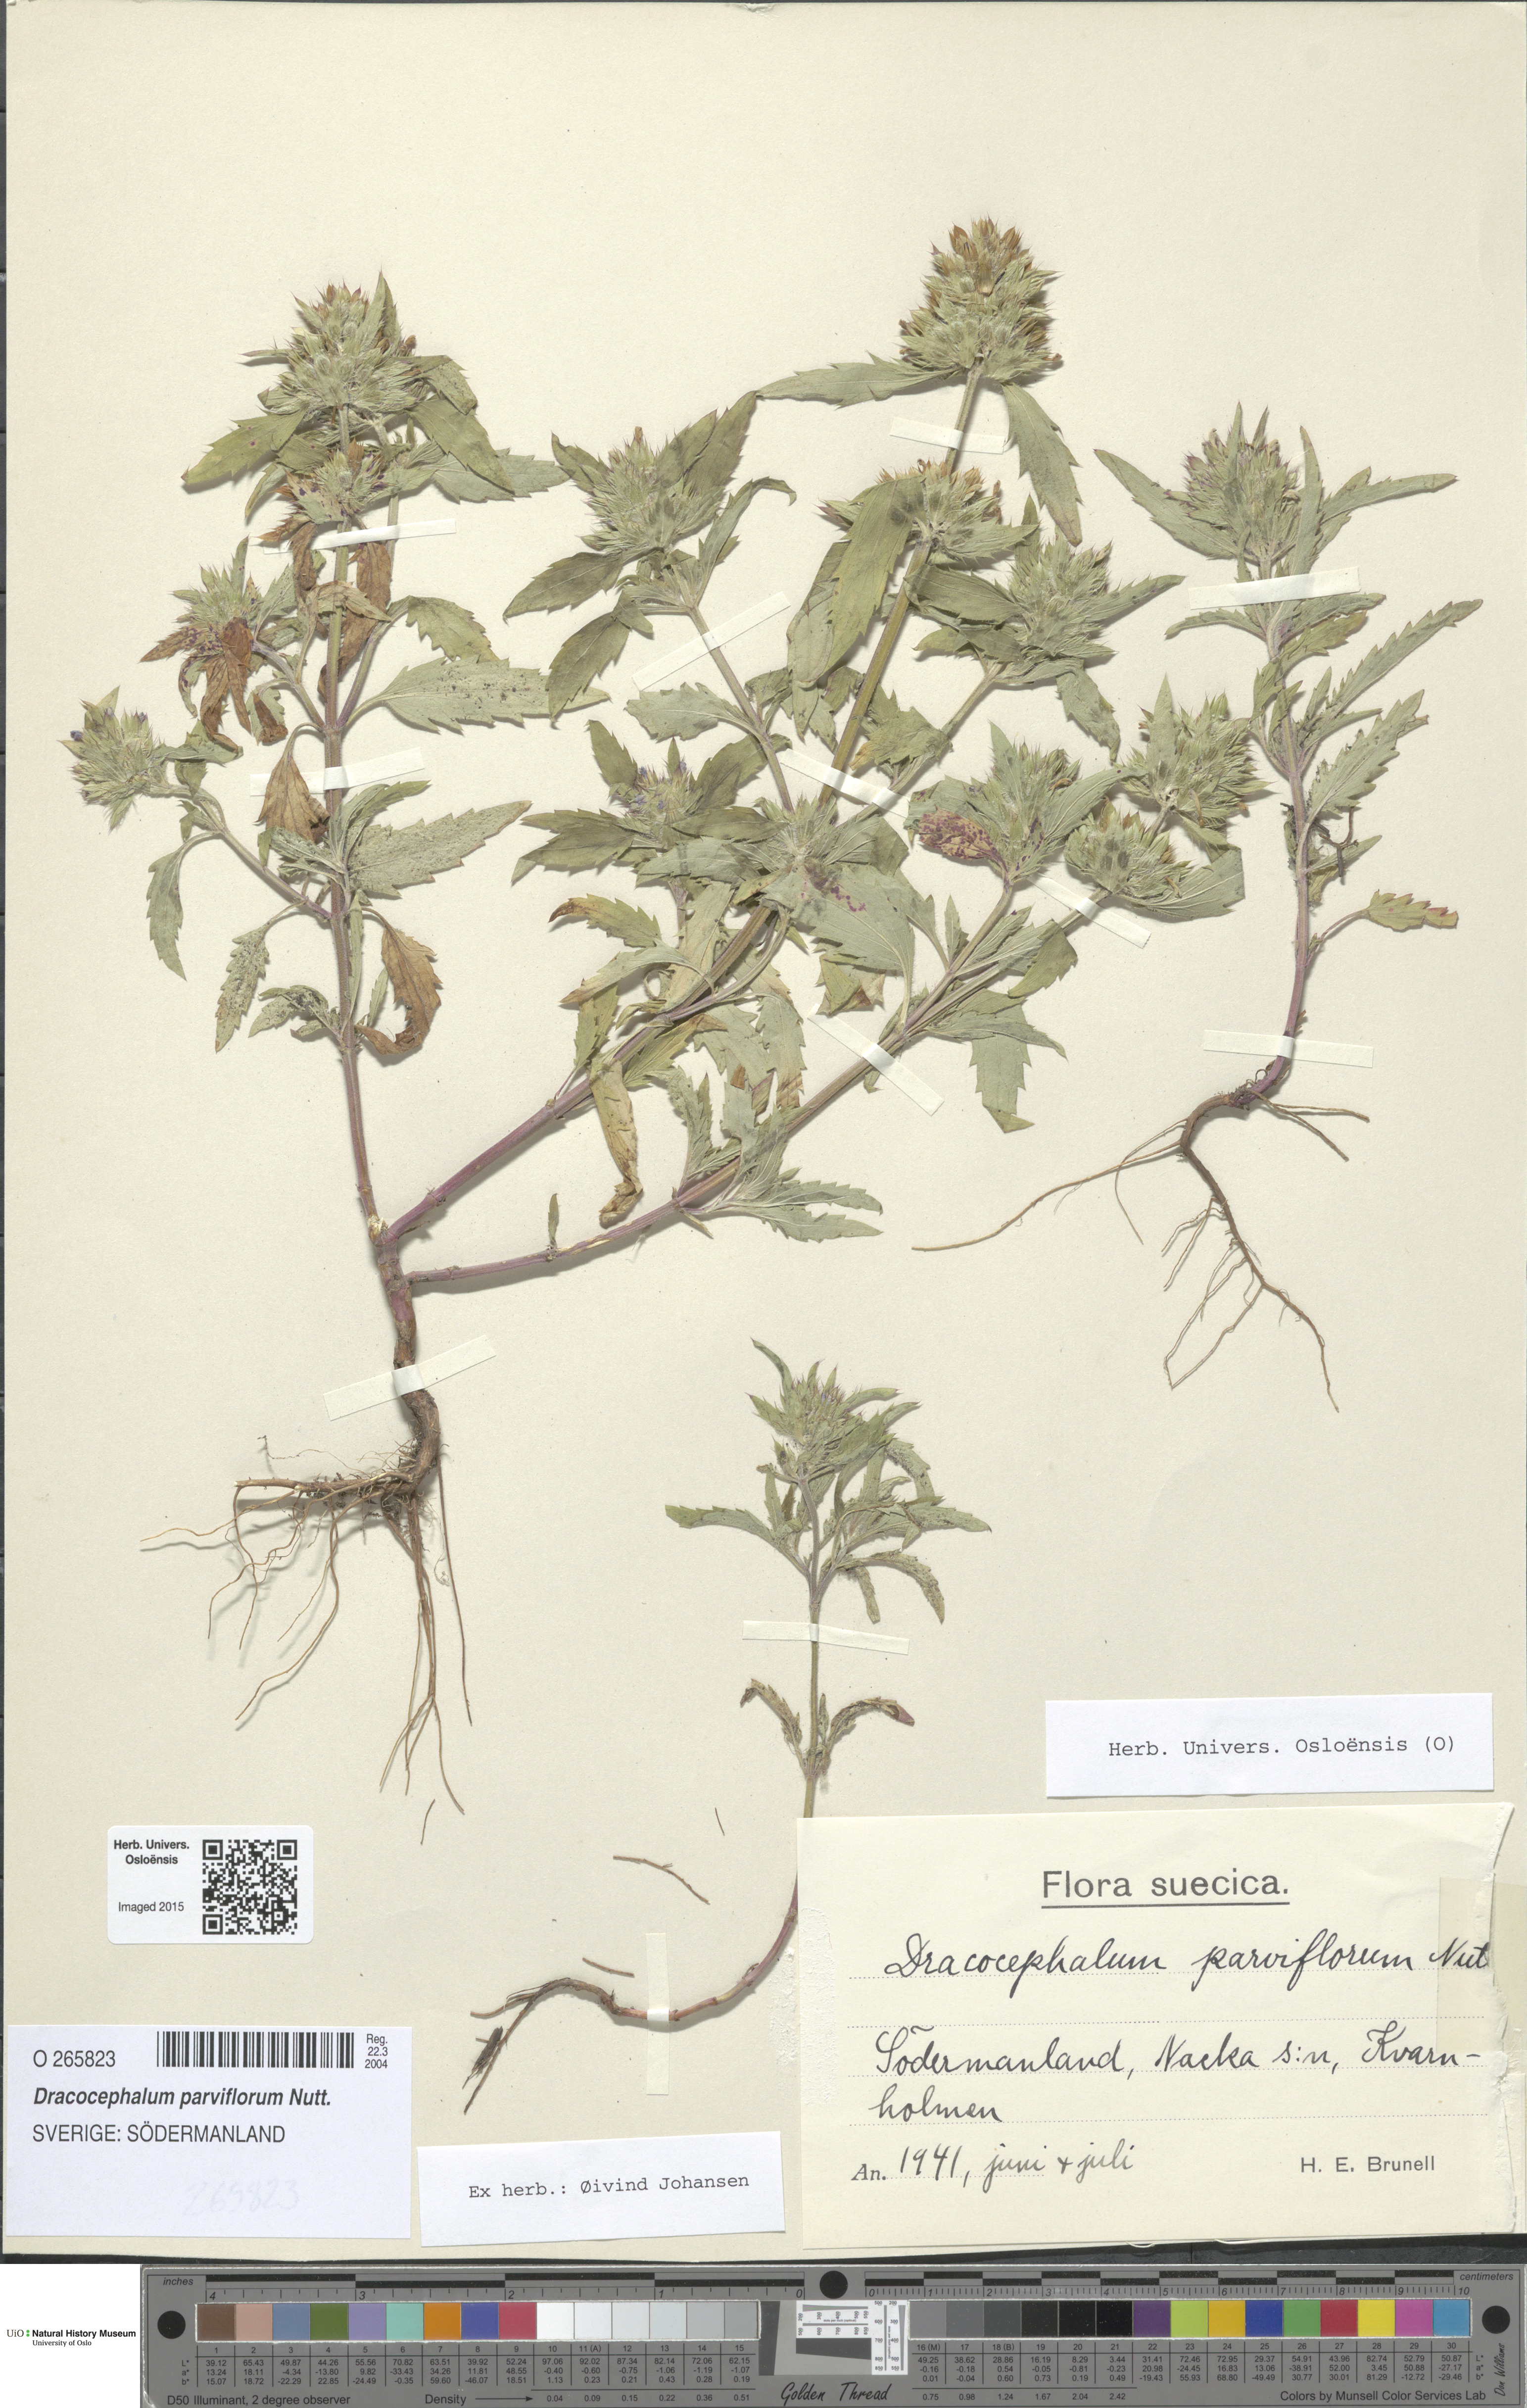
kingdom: Plantae
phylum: Tracheophyta
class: Magnoliopsida
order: Lamiales
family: Lamiaceae
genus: Dracocephalum
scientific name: Dracocephalum parviflorum
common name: American dragonhead
